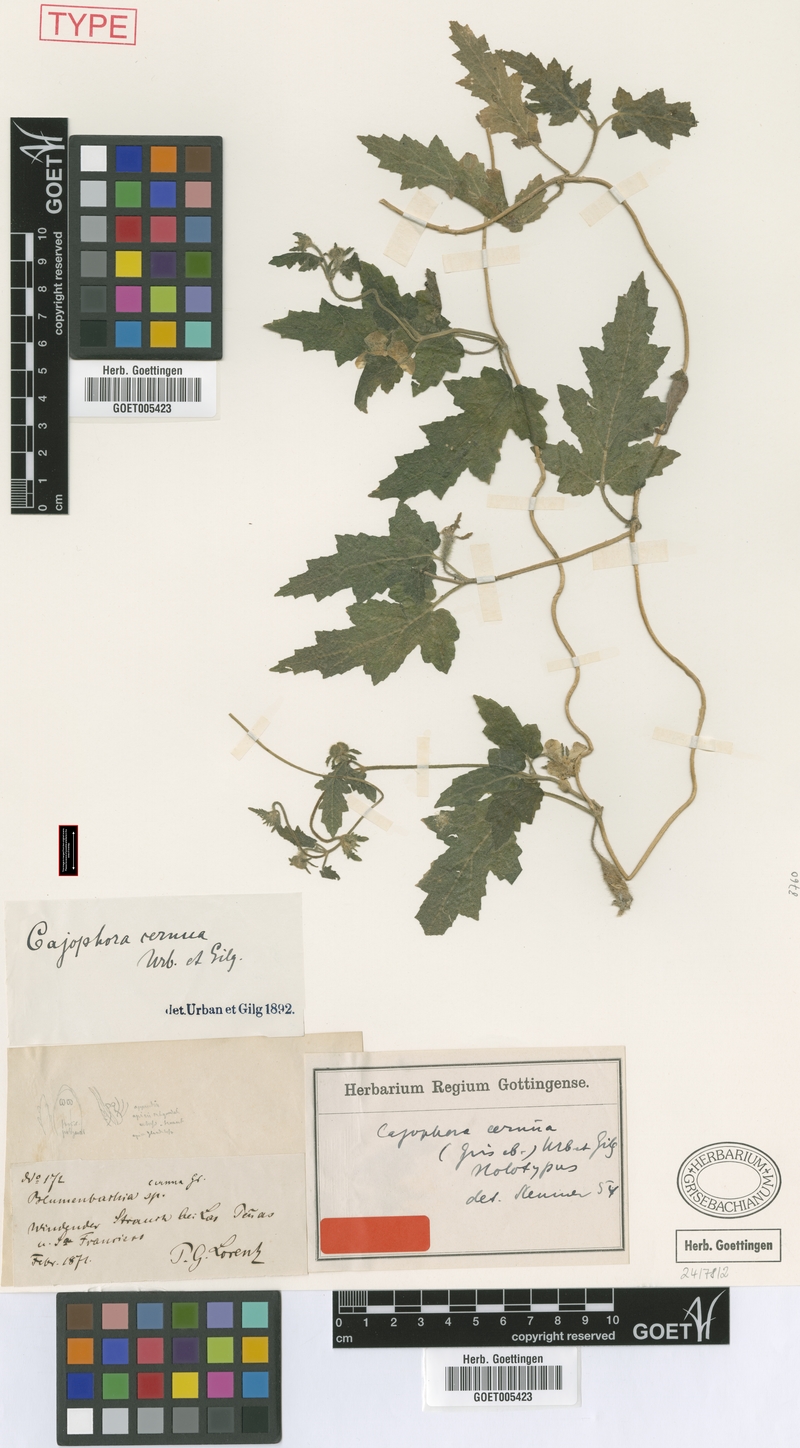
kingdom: Plantae
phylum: Tracheophyta
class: Magnoliopsida
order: Cornales
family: Loasaceae
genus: Caiophora
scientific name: Caiophora cernua
